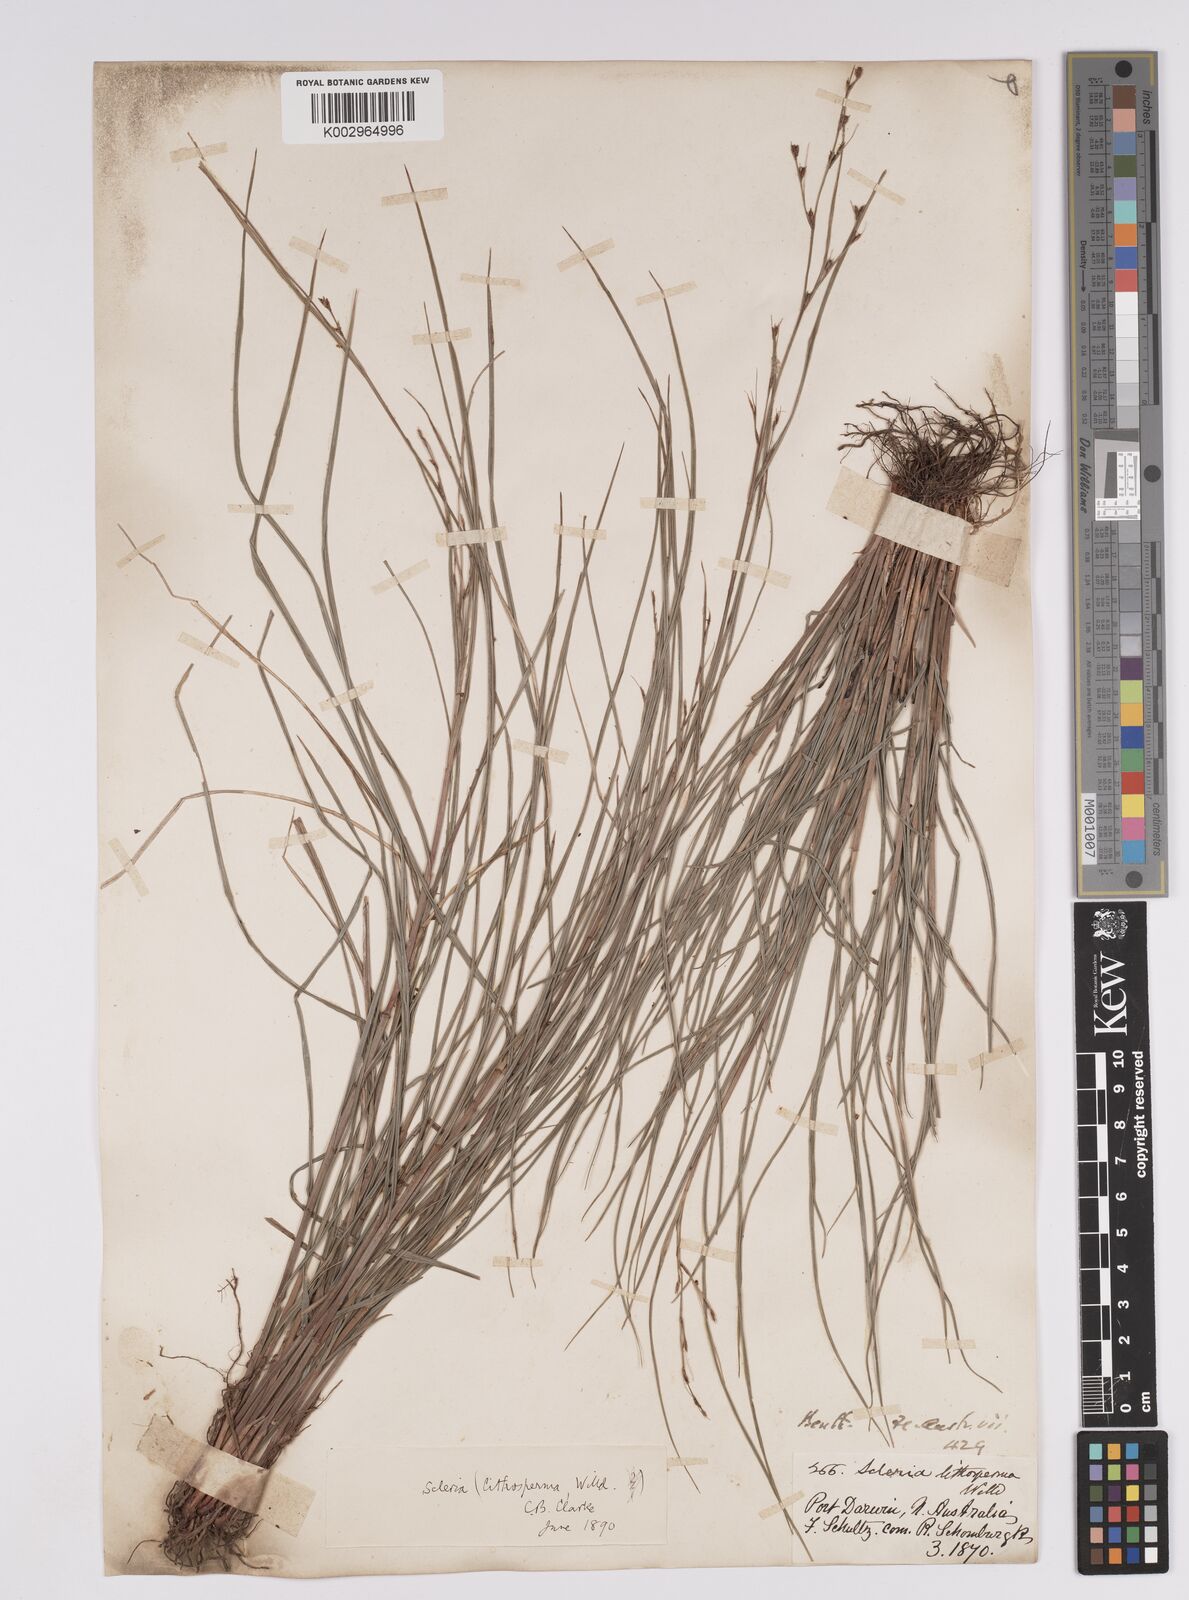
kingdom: Plantae
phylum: Tracheophyta
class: Liliopsida
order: Poales
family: Cyperaceae
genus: Scleria
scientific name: Scleria lithosperma
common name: Florida keys nut-rush
